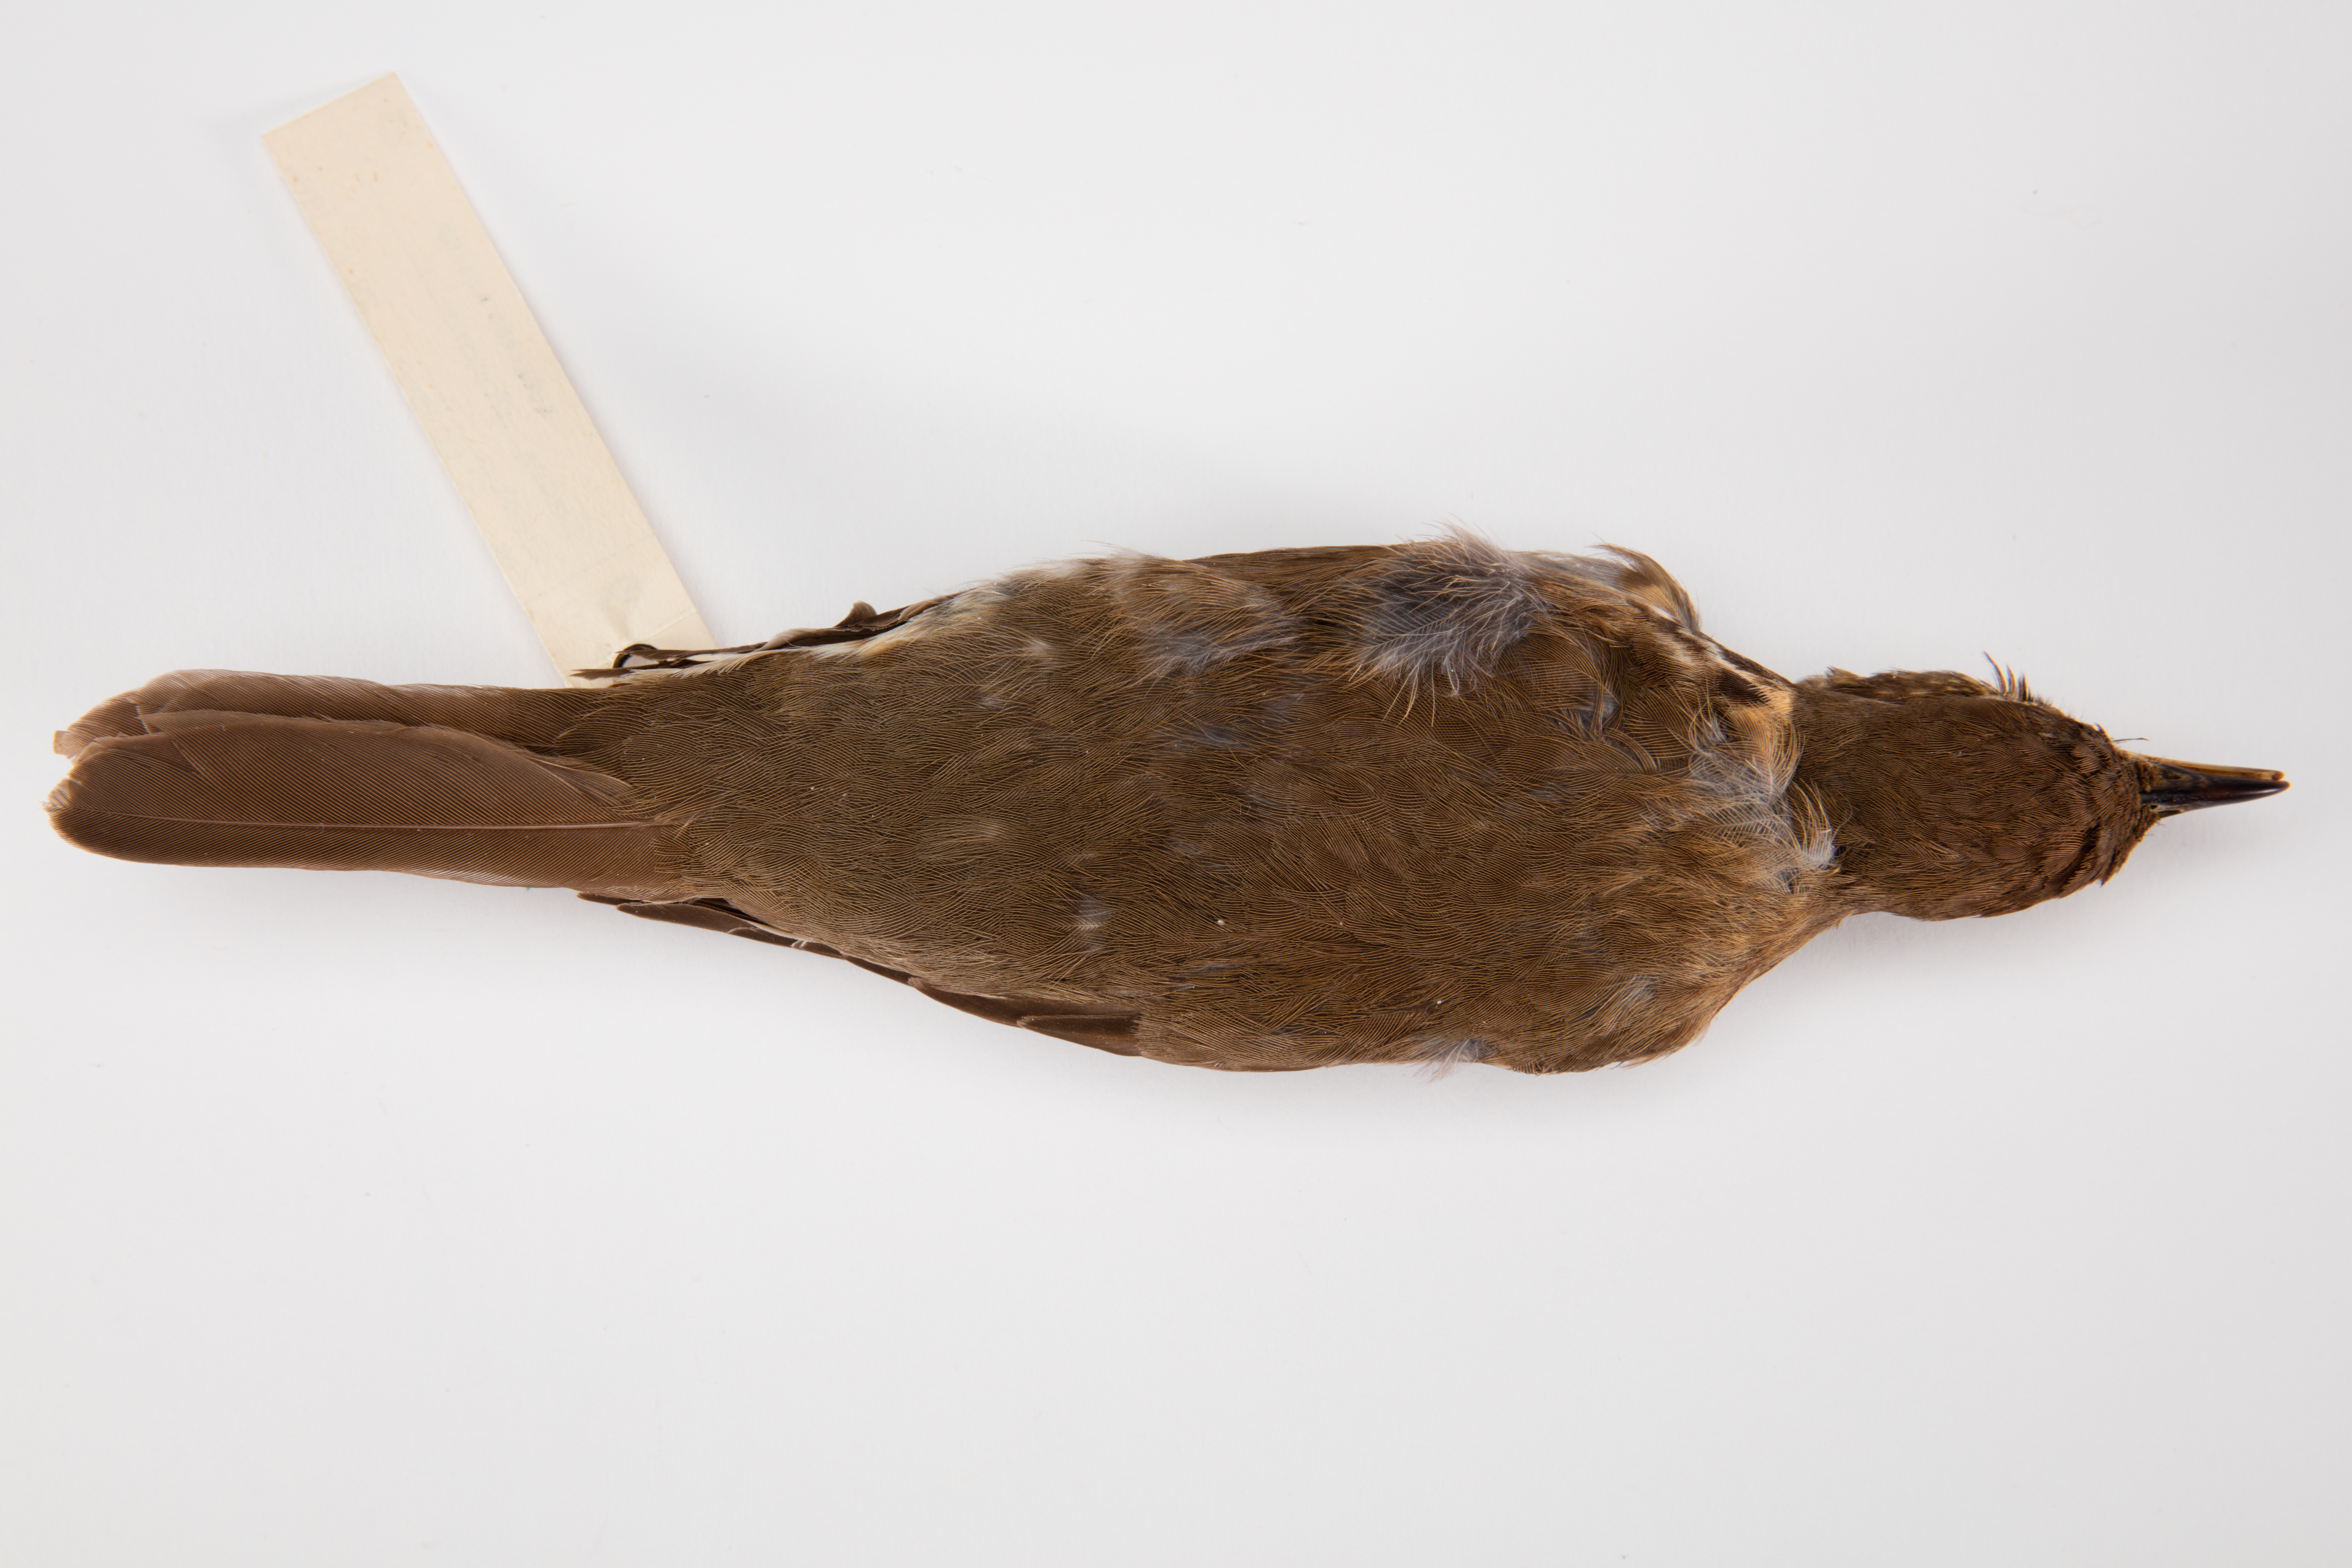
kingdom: Animalia
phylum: Chordata
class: Aves
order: Passeriformes
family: Turdidae
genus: Turdus
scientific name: Turdus philomelos
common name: Song thrush
